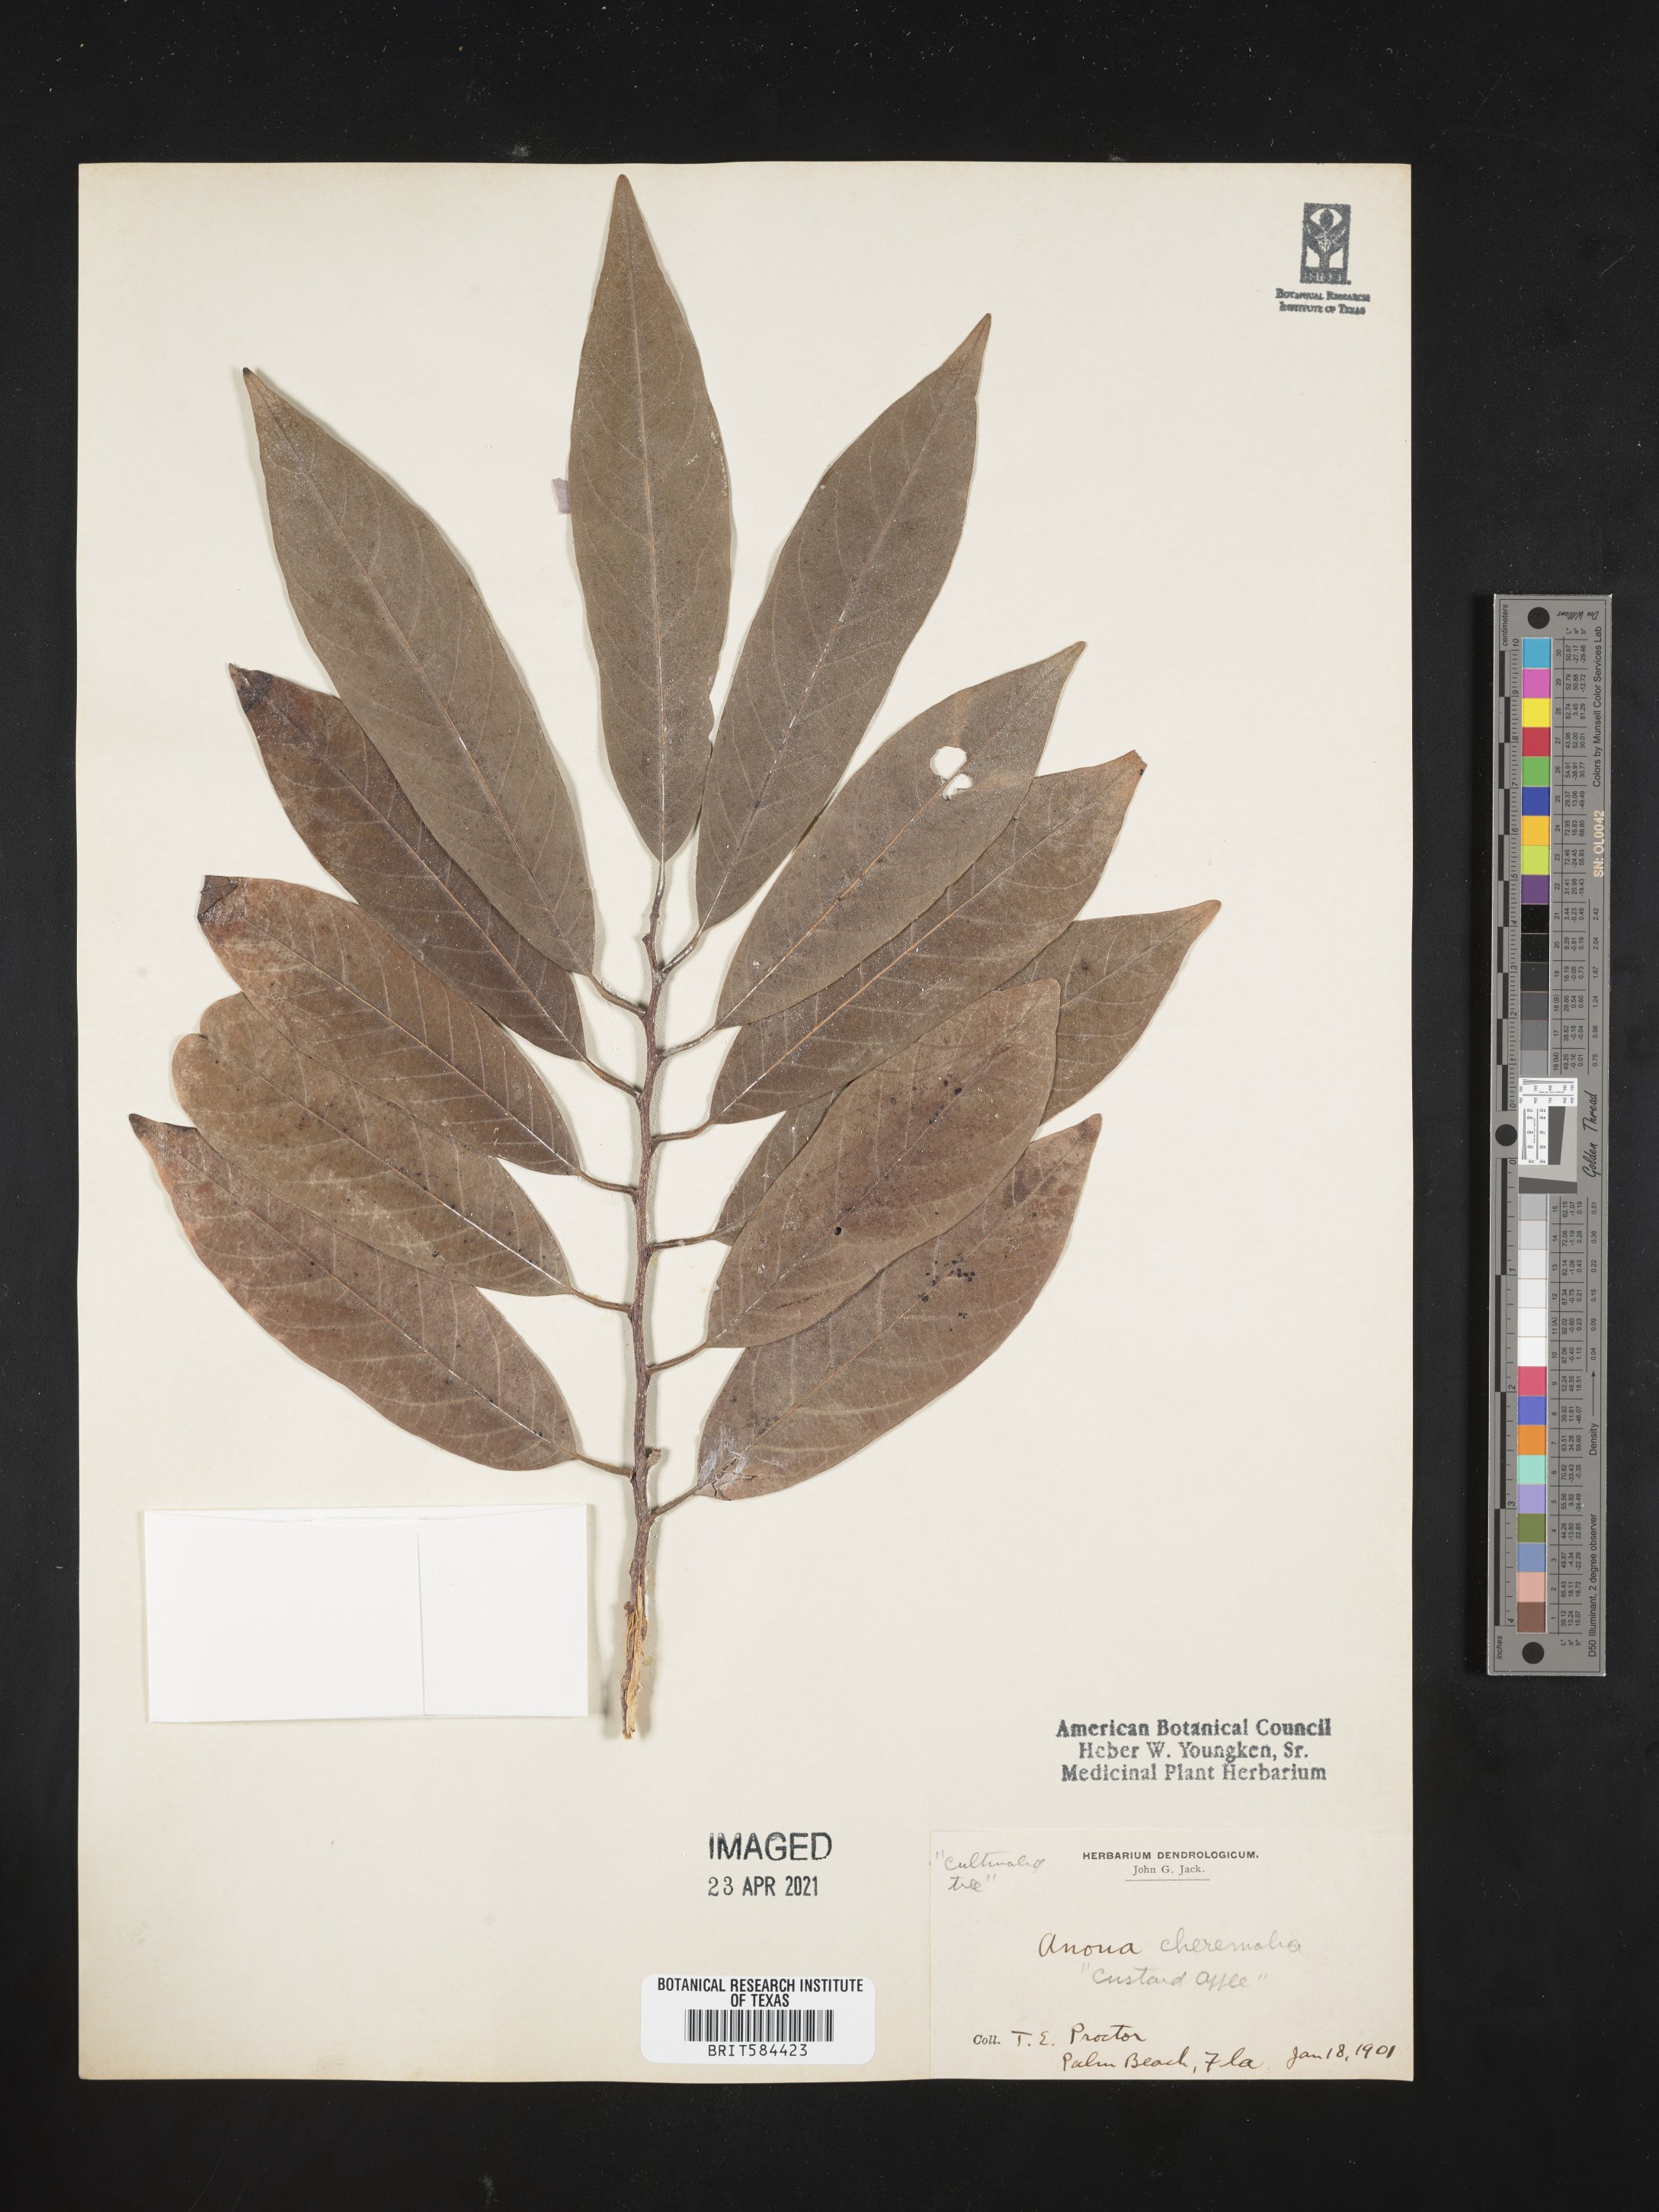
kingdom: Plantae
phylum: Tracheophyta
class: Magnoliopsida
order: Magnoliales
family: Annonaceae
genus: Annona
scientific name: Annona cherimolia
